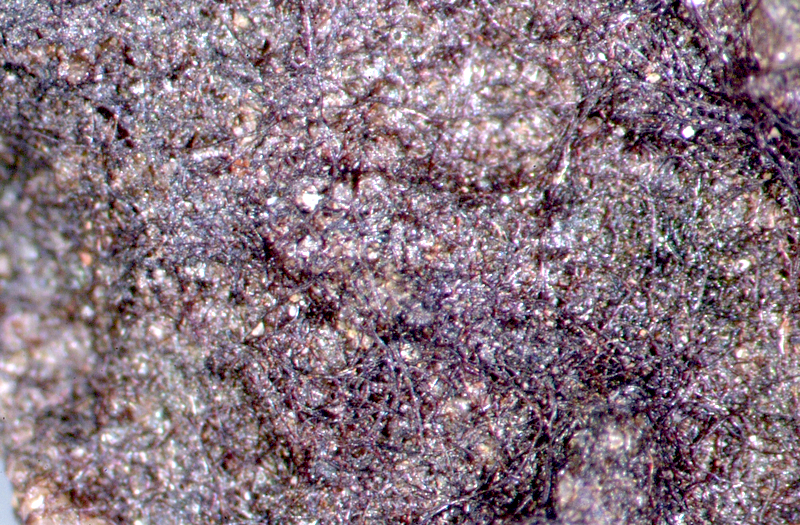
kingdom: Bacteria
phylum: Cyanobacteria
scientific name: Cyanobacteria
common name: Cyanobacteria
